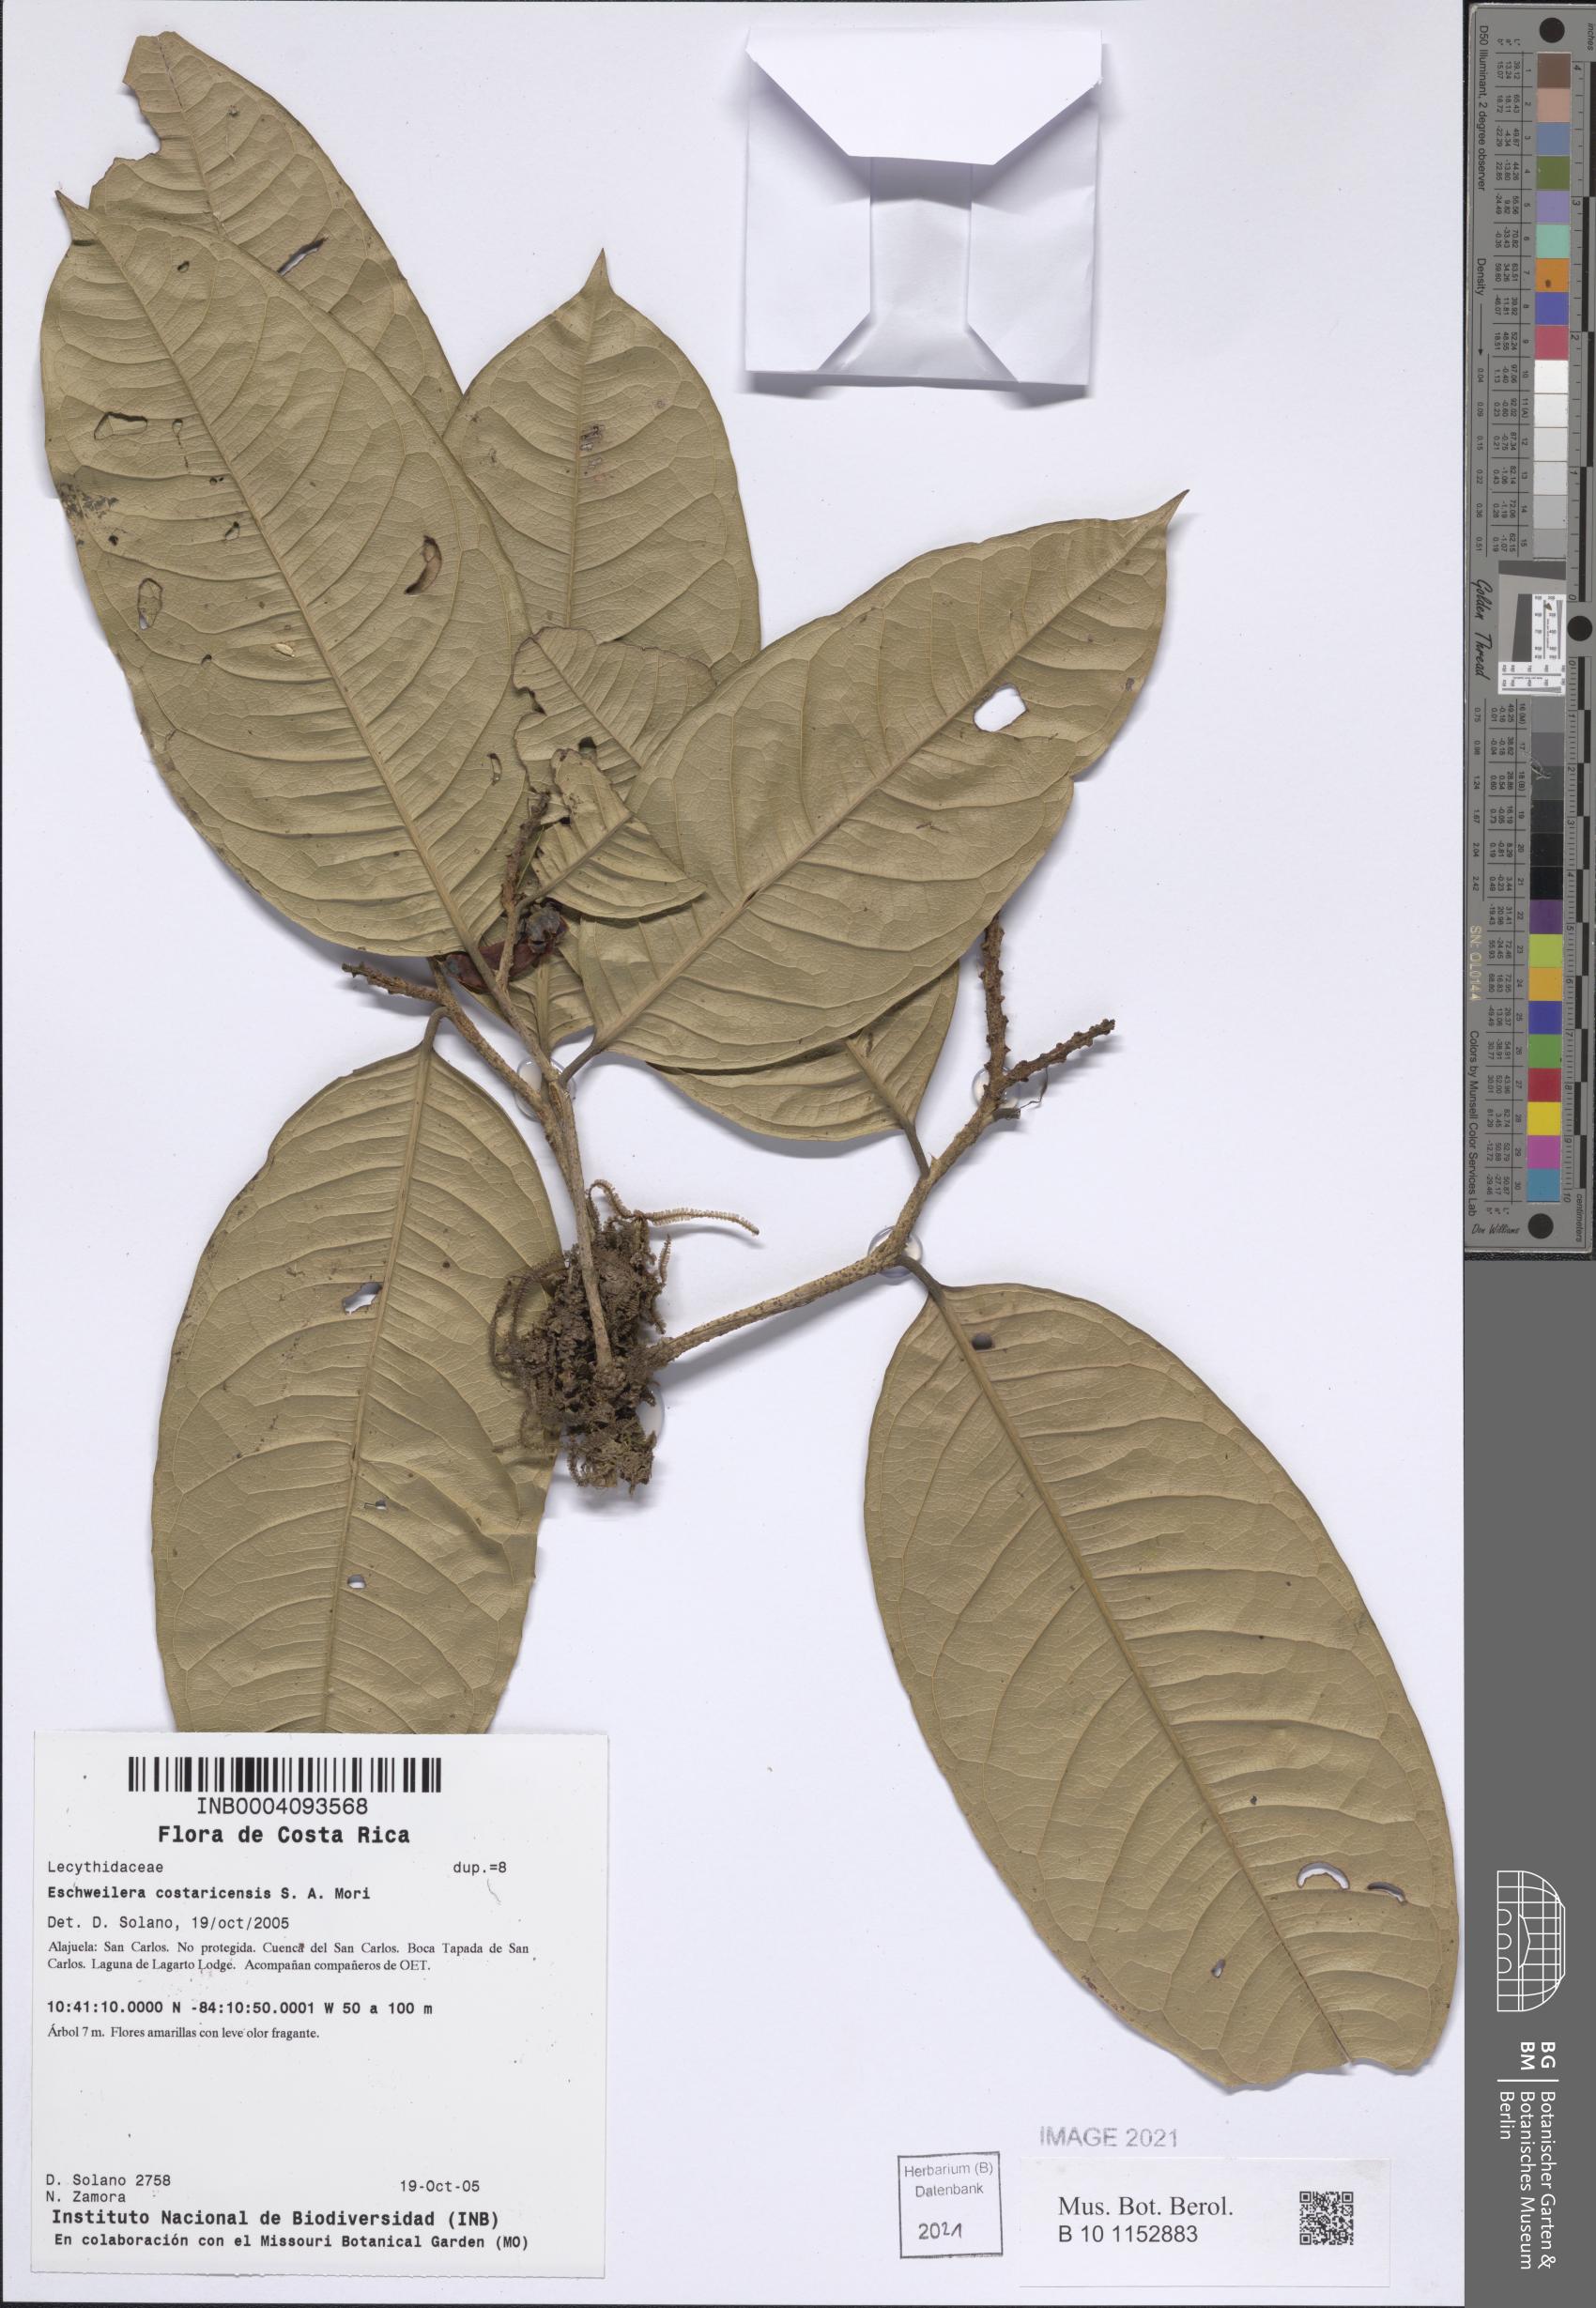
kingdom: Plantae
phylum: Tracheophyta
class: Magnoliopsida
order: Ericales
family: Lecythidaceae
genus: Eschweilera
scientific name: Eschweilera costaricensis
